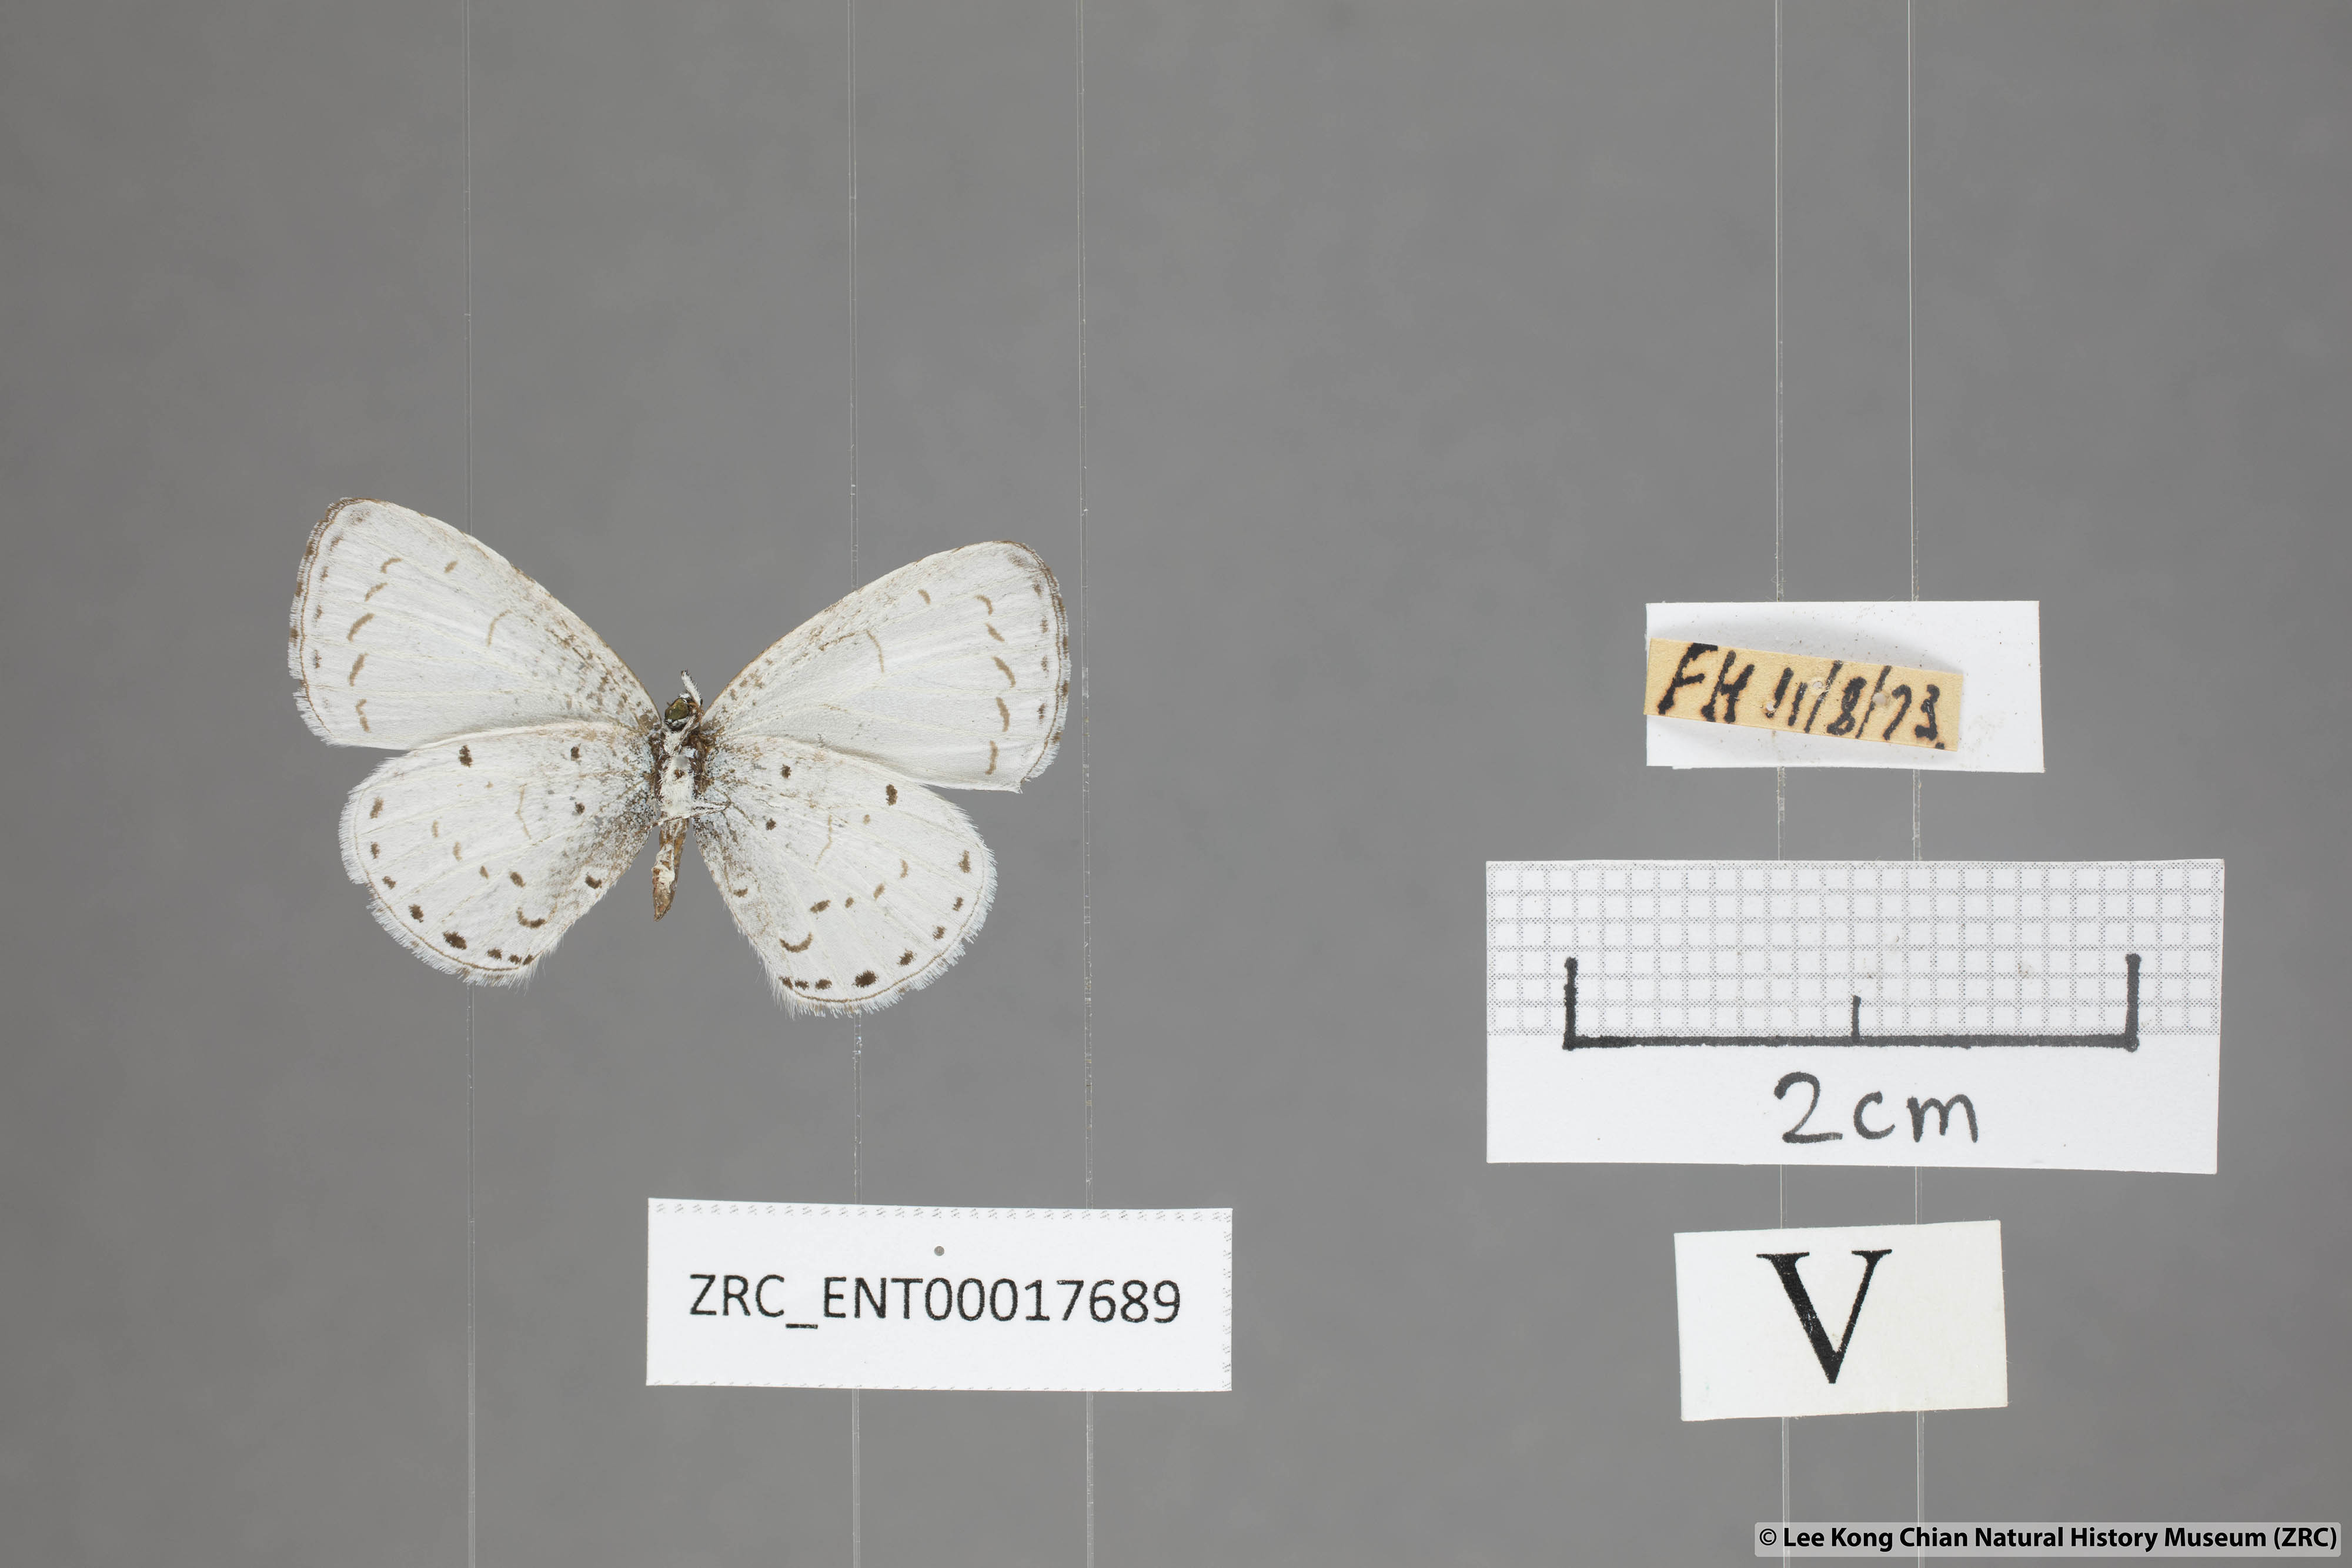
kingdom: Animalia
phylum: Arthropoda
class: Insecta
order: Lepidoptera
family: Lycaenidae
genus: Udara
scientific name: Udara camenae
